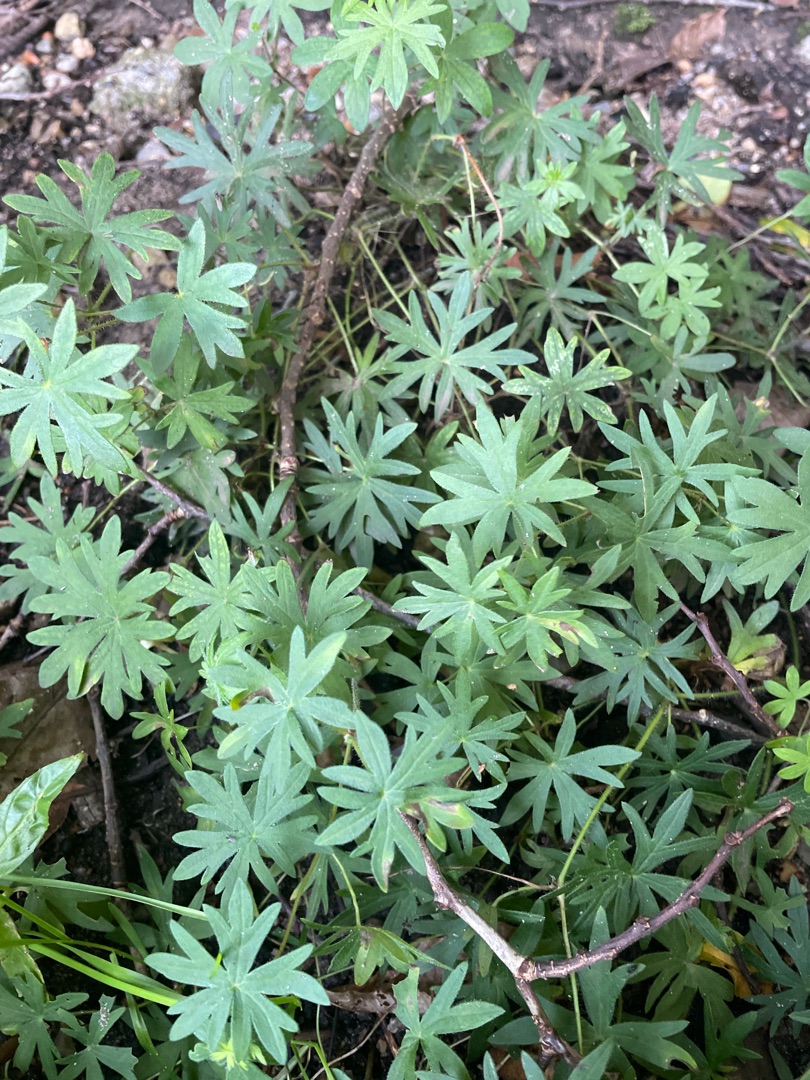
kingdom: Plantae
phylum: Tracheophyta
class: Magnoliopsida
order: Geraniales
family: Geraniaceae
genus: Geranium
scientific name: Geranium sanguineum
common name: Blodrød storkenæb
